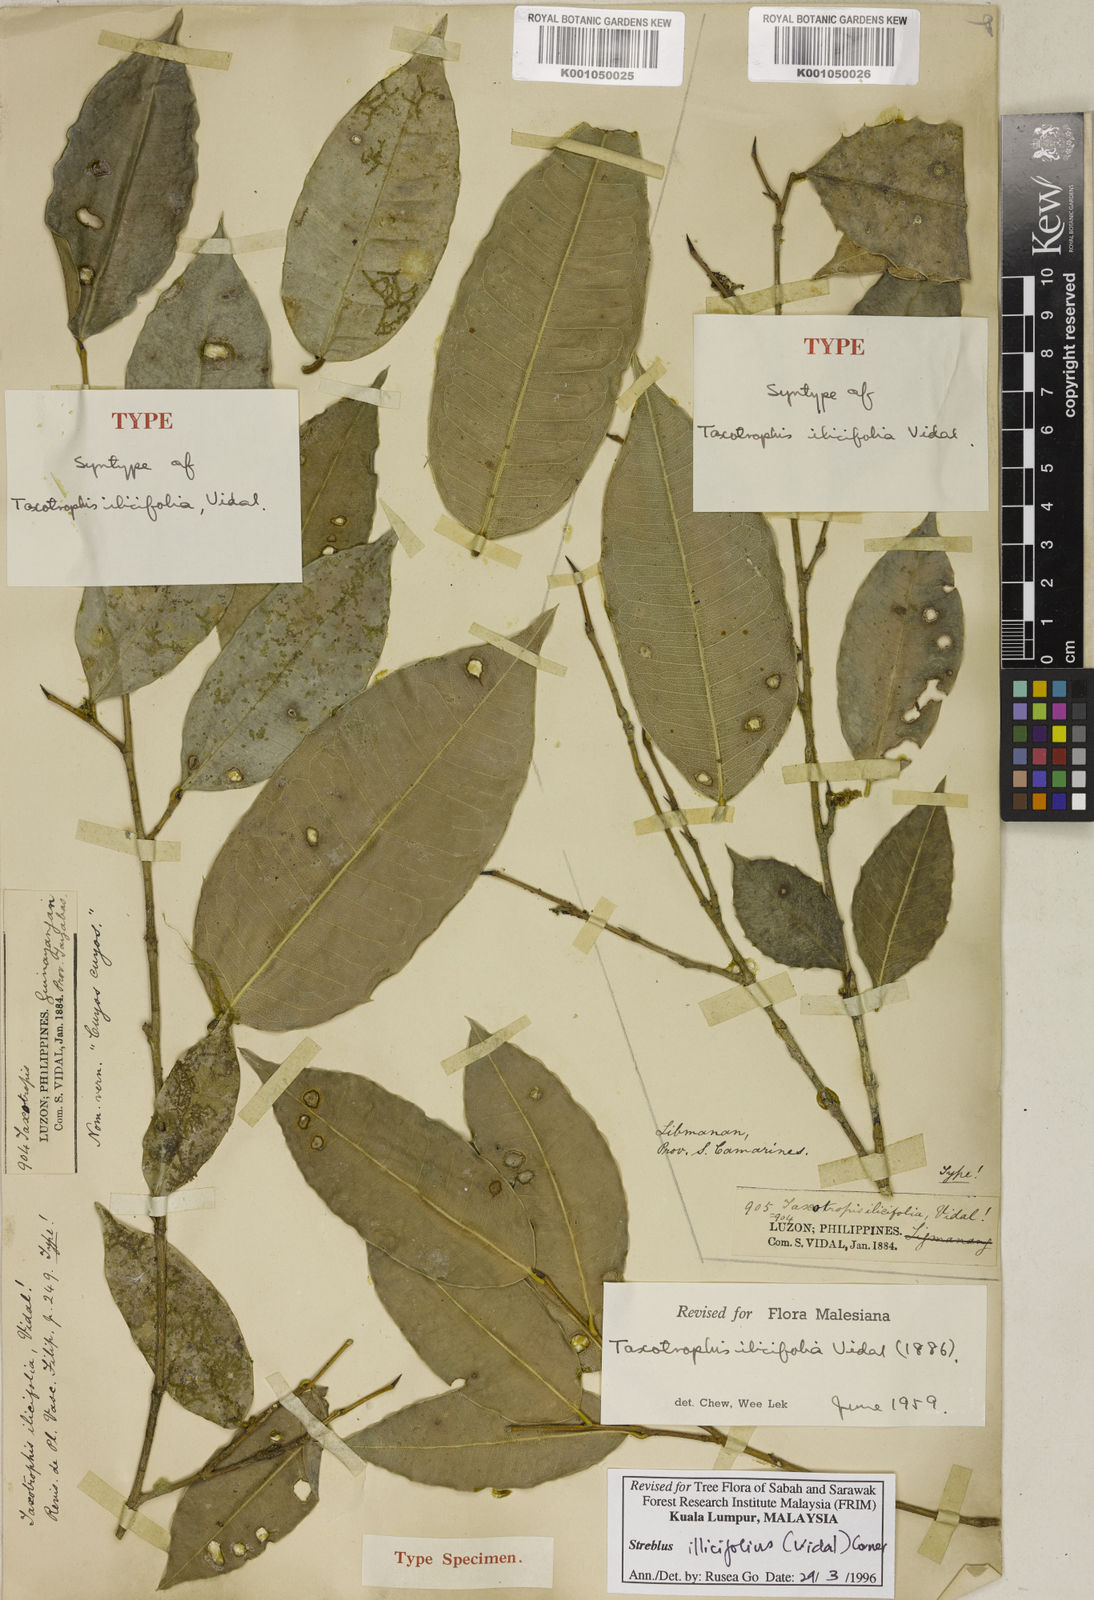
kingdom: Plantae
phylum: Tracheophyta
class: Magnoliopsida
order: Rosales
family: Moraceae
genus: Taxotrophis
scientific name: Taxotrophis ilicifolia
